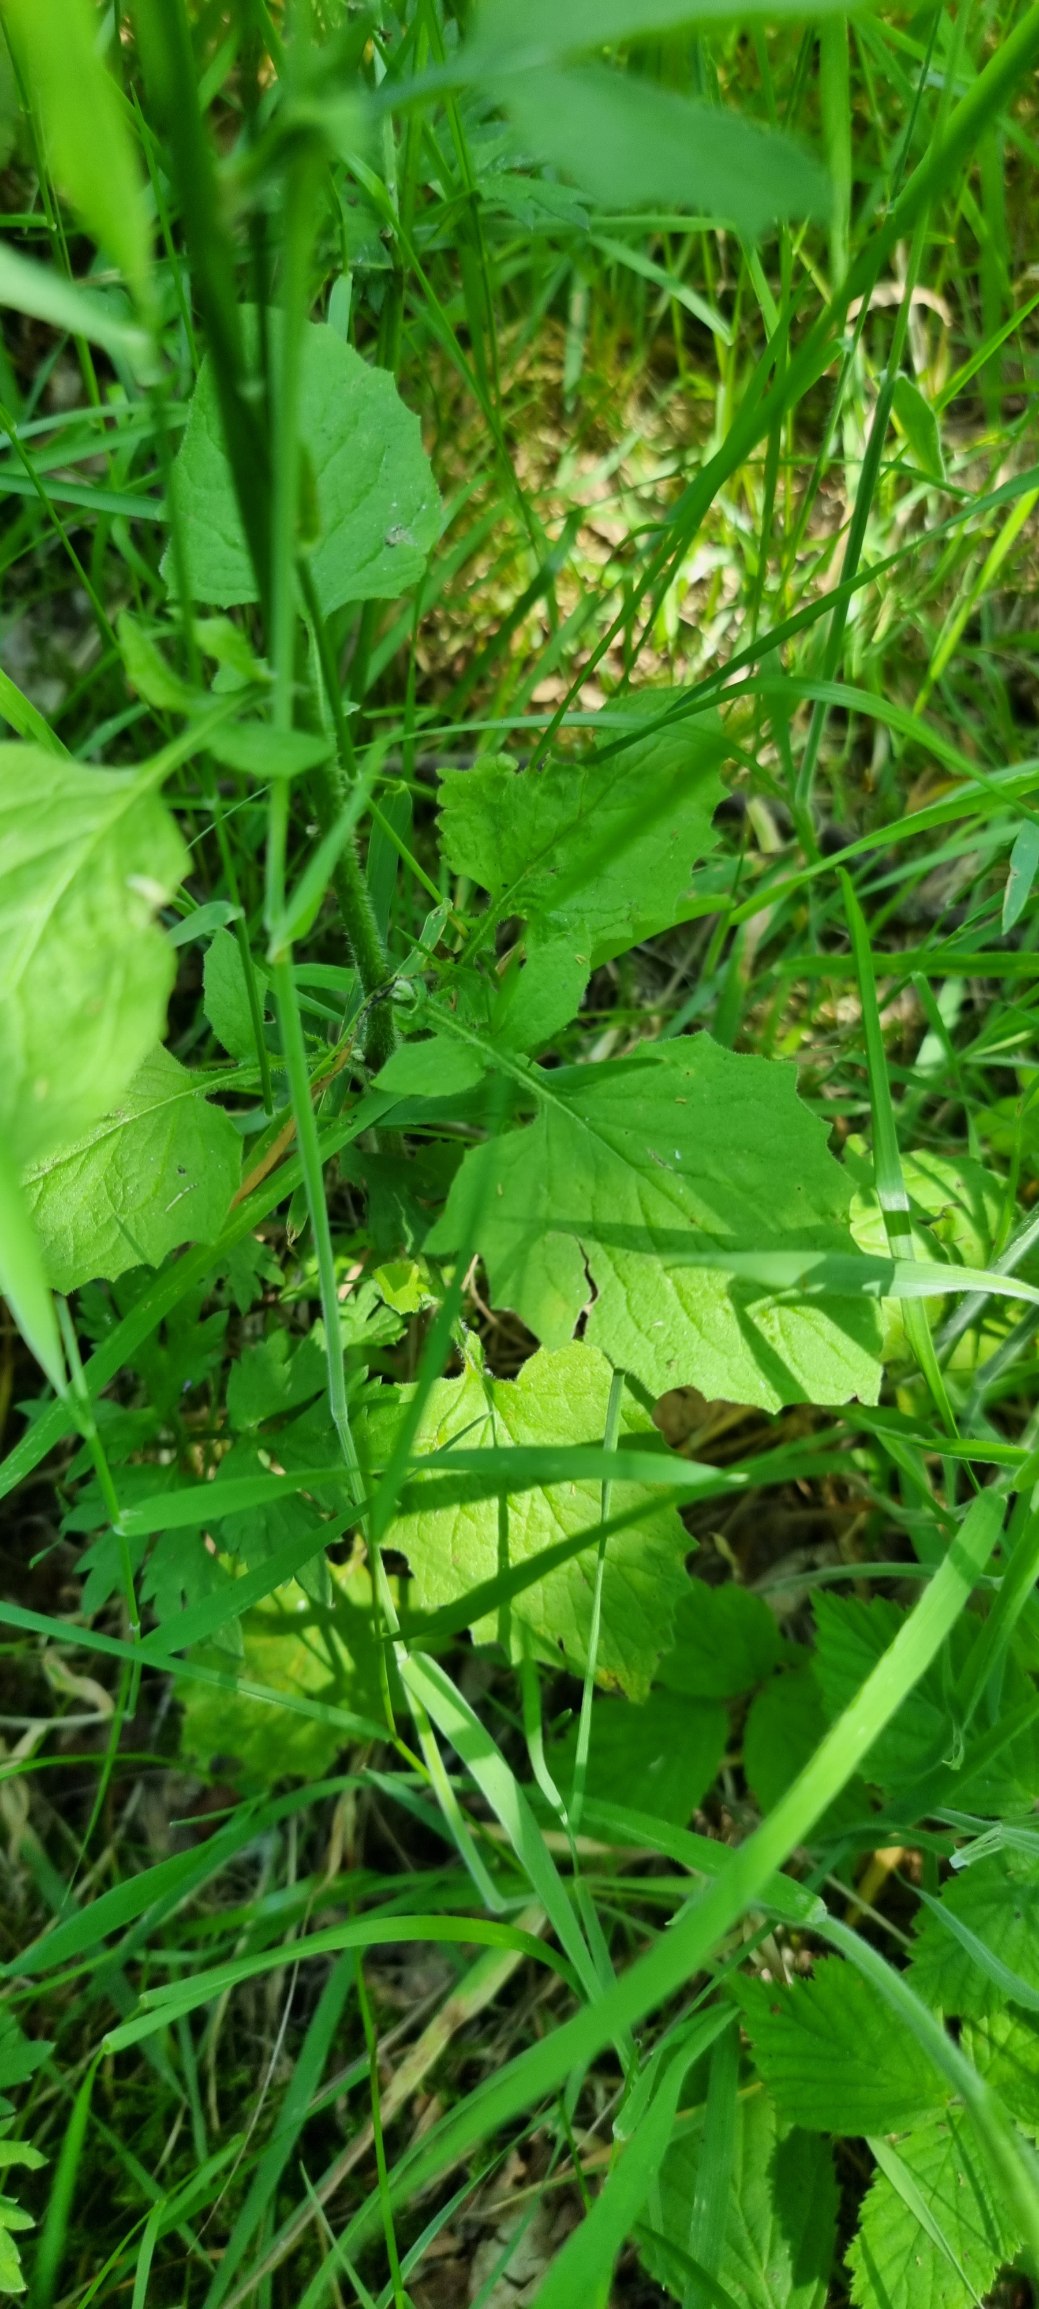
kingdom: Plantae
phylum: Tracheophyta
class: Magnoliopsida
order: Asterales
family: Asteraceae
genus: Lapsana
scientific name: Lapsana communis
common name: Haremad
